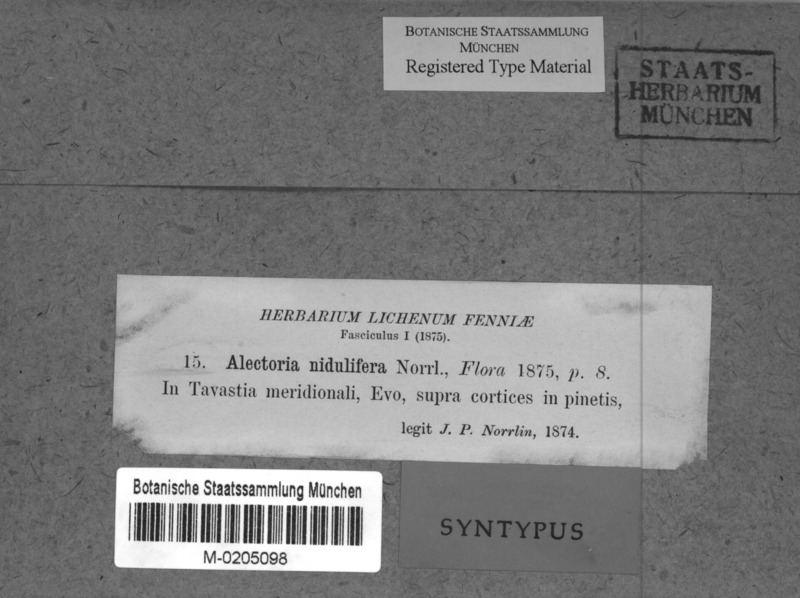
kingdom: Fungi
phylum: Ascomycota
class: Lecanoromycetes
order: Lecanorales
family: Parmeliaceae
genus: Bryoria
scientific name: Bryoria furcellata
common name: Forked hair-lichen
